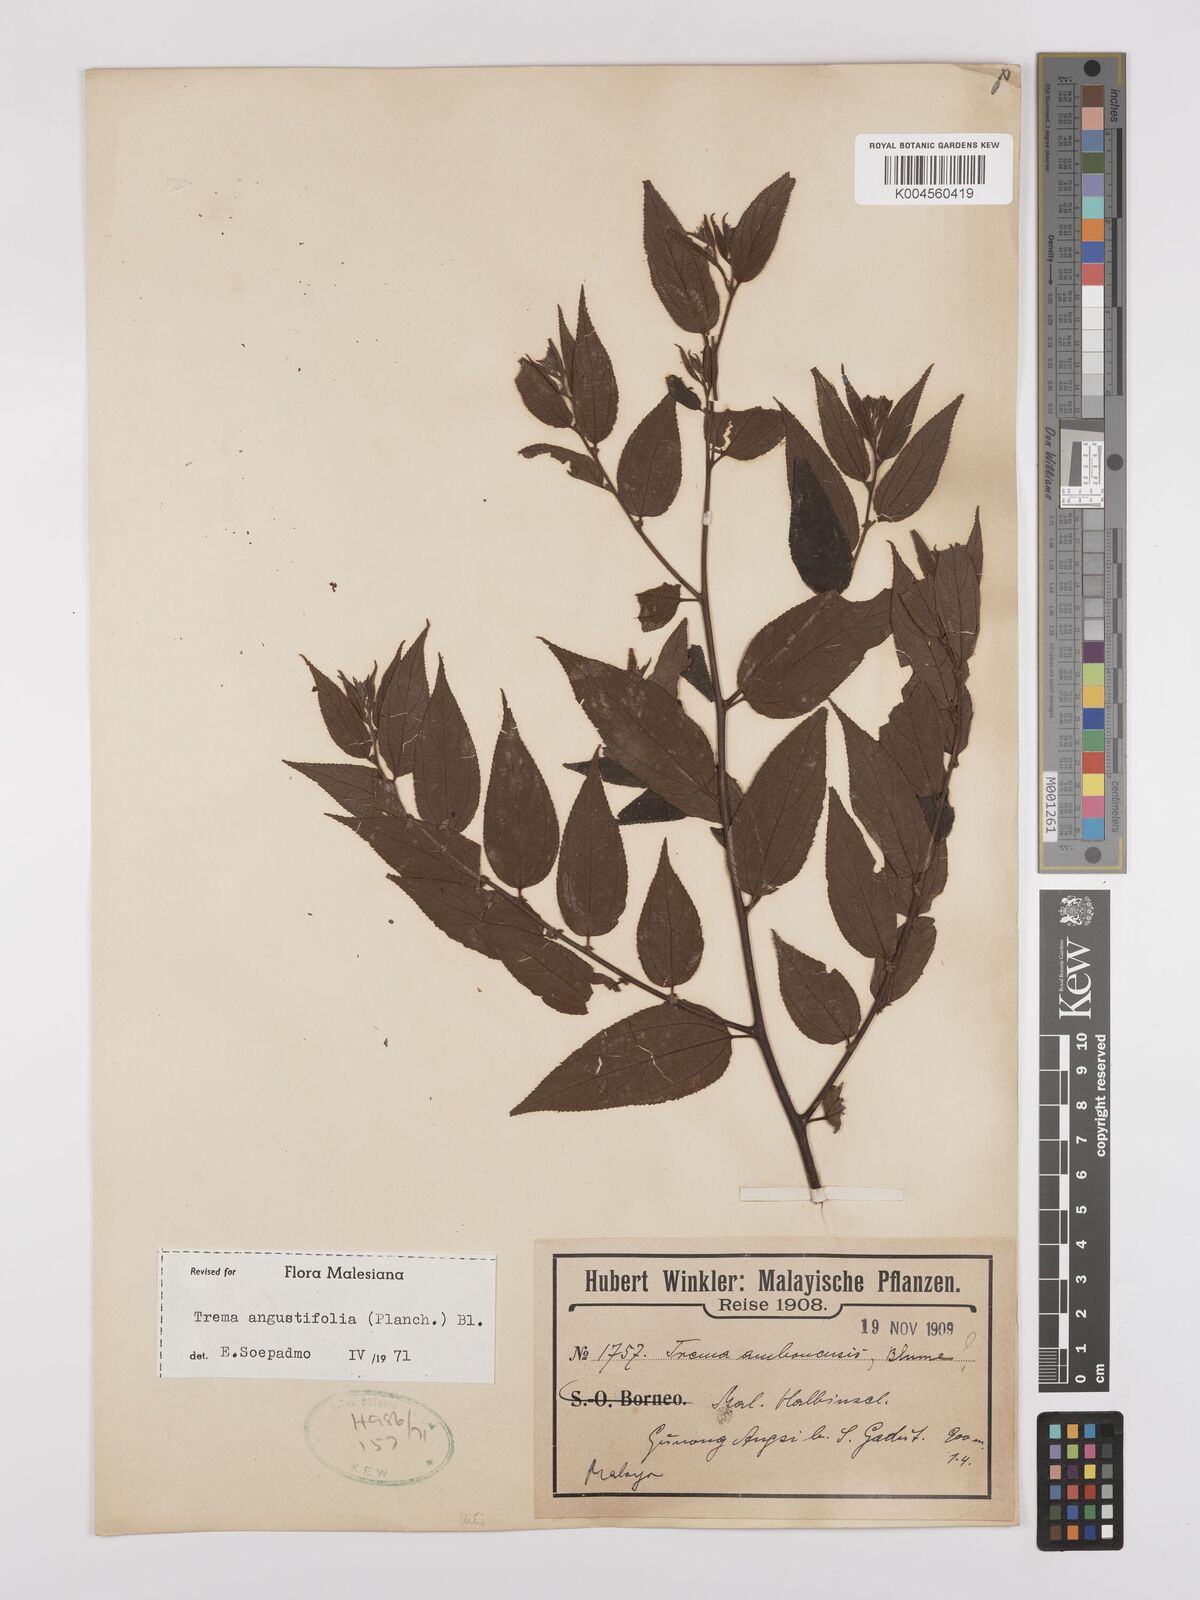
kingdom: Plantae
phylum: Tracheophyta
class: Magnoliopsida
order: Rosales
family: Cannabaceae
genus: Trema
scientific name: Trema angustifolium
